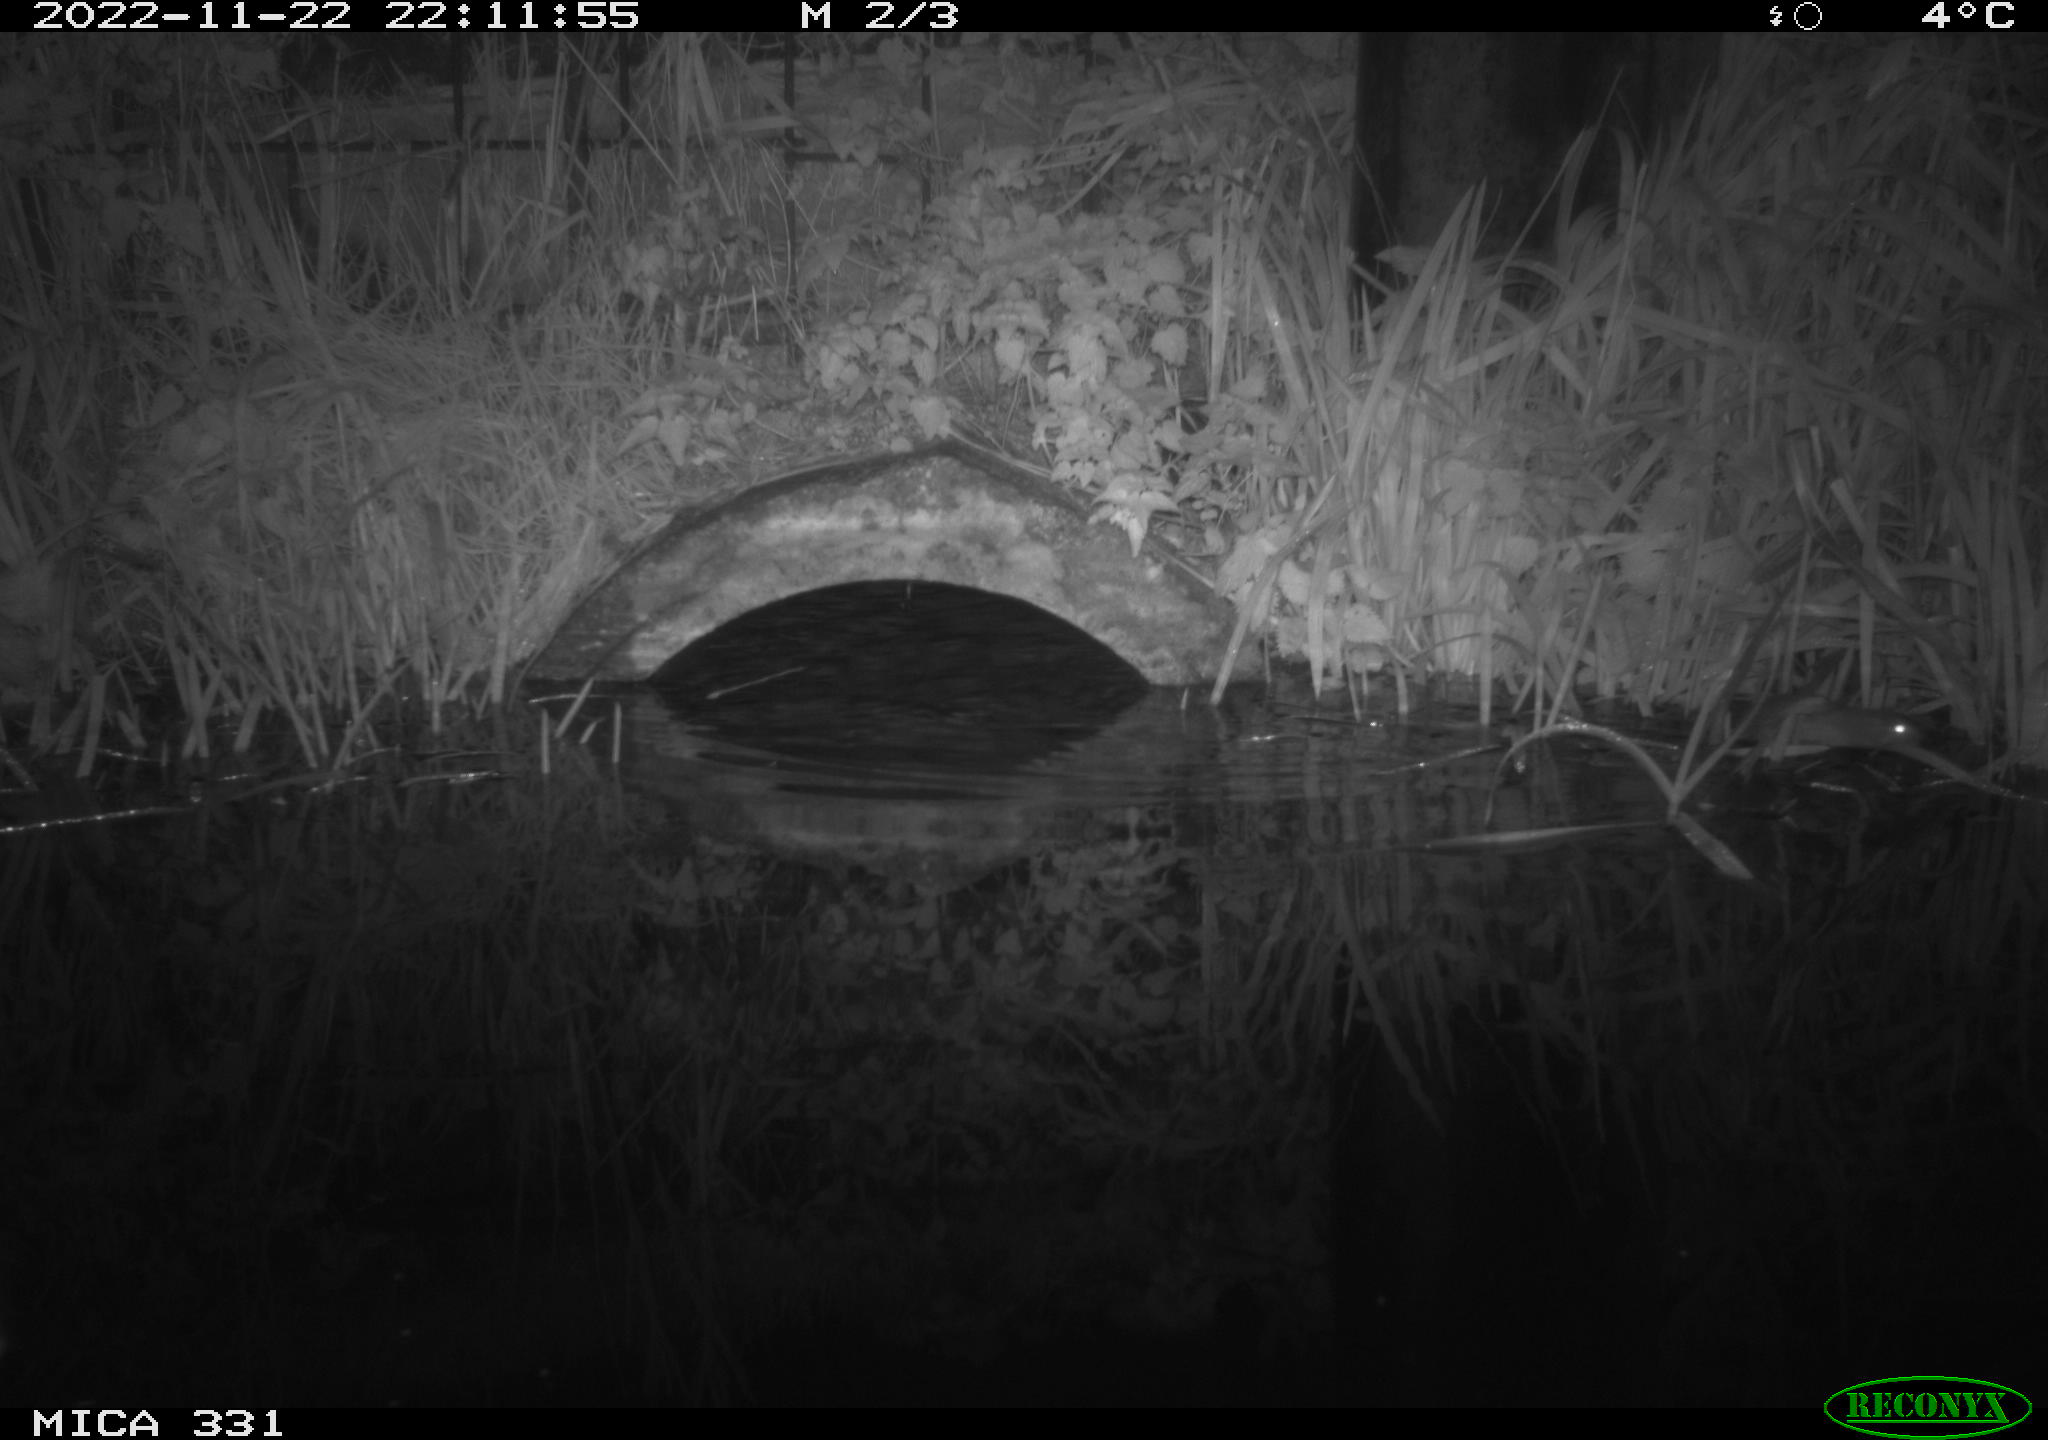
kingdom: Animalia
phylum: Chordata
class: Mammalia
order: Rodentia
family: Muridae
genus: Rattus
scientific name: Rattus norvegicus
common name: Brown rat
